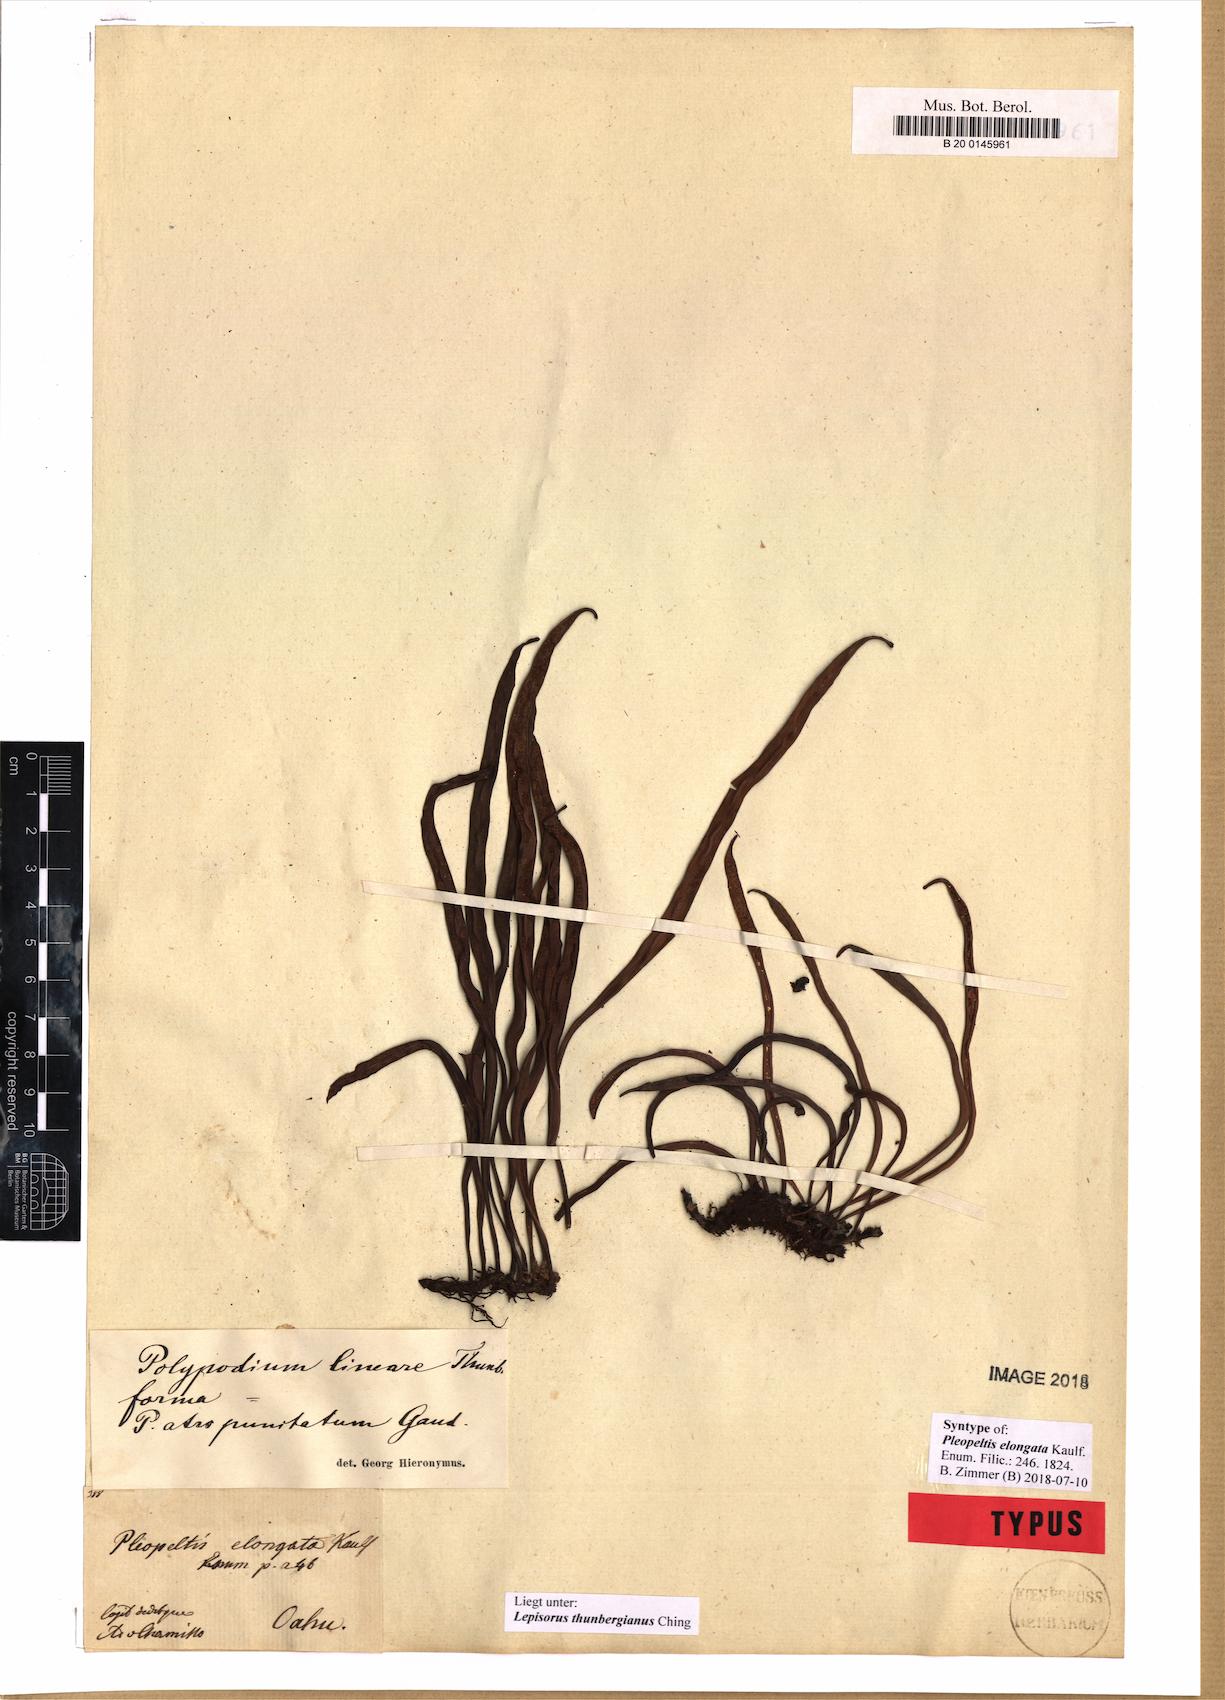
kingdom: Plantae
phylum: Tracheophyta
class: Polypodiopsida
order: Polypodiales
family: Polypodiaceae
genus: Lepisorus
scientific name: Lepisorus thunbergianus
